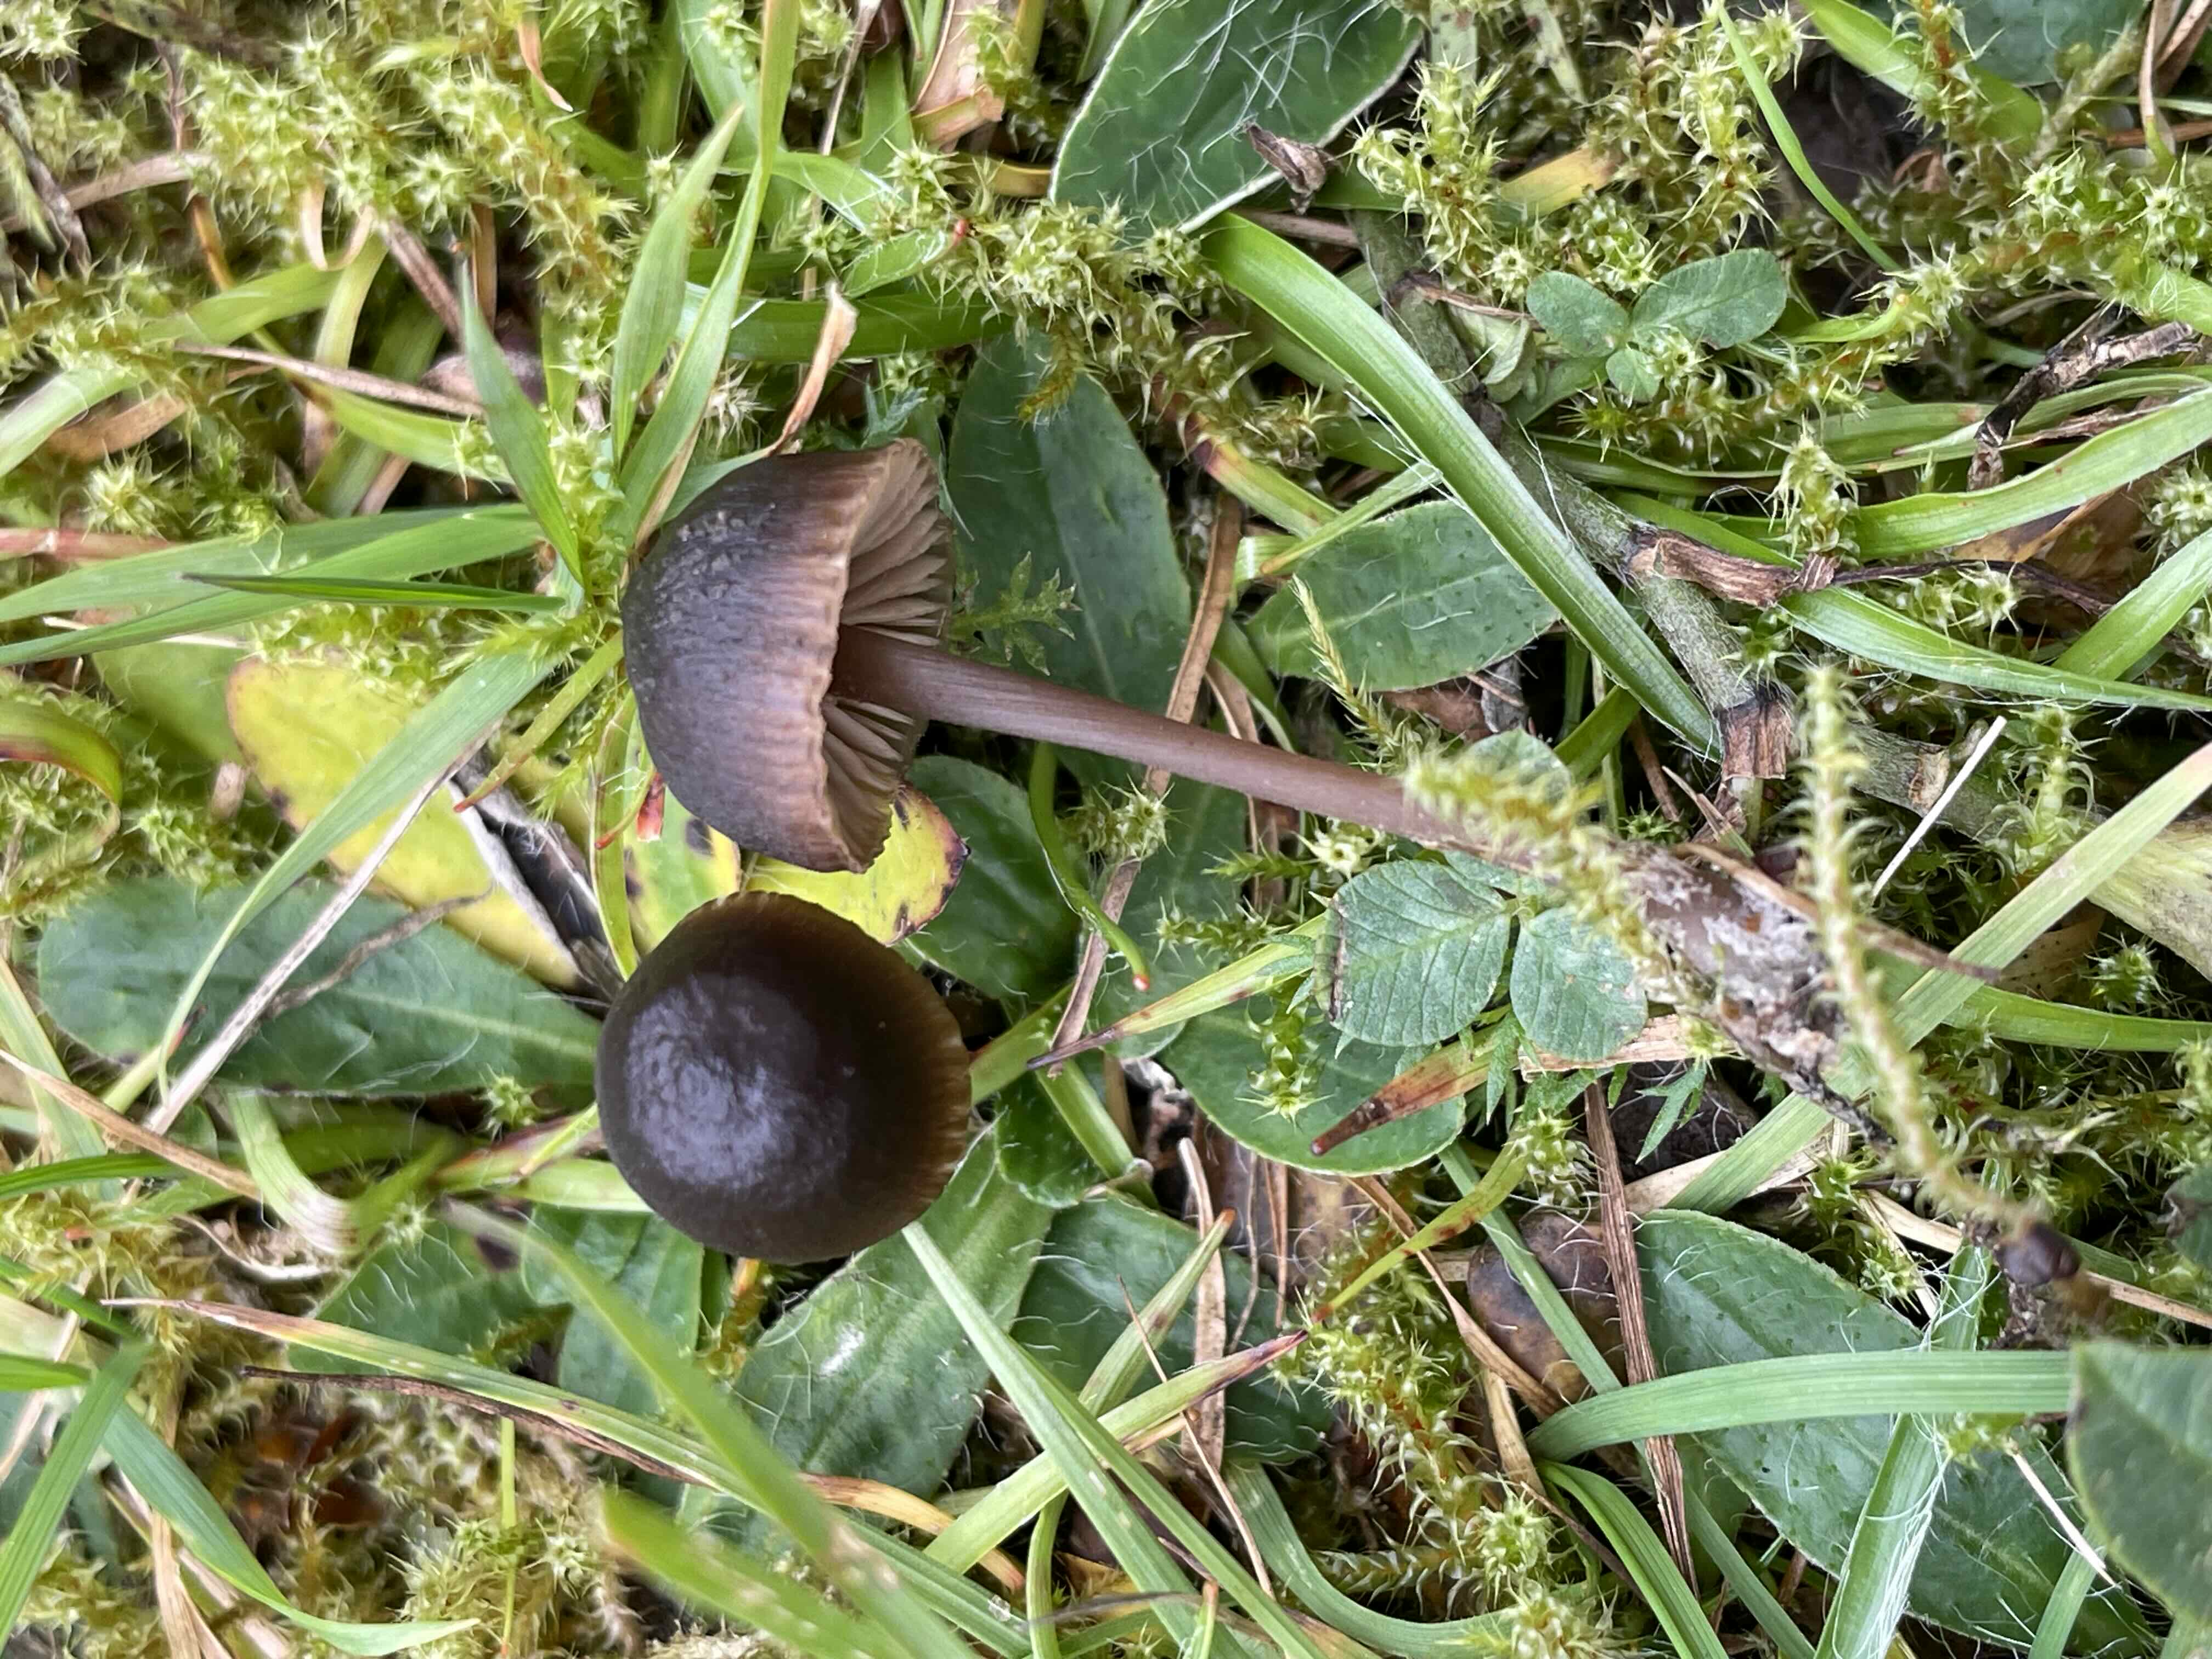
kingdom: Fungi
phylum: Basidiomycota
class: Agaricomycetes
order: Agaricales
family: Entolomataceae
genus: Entoloma
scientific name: Entoloma
